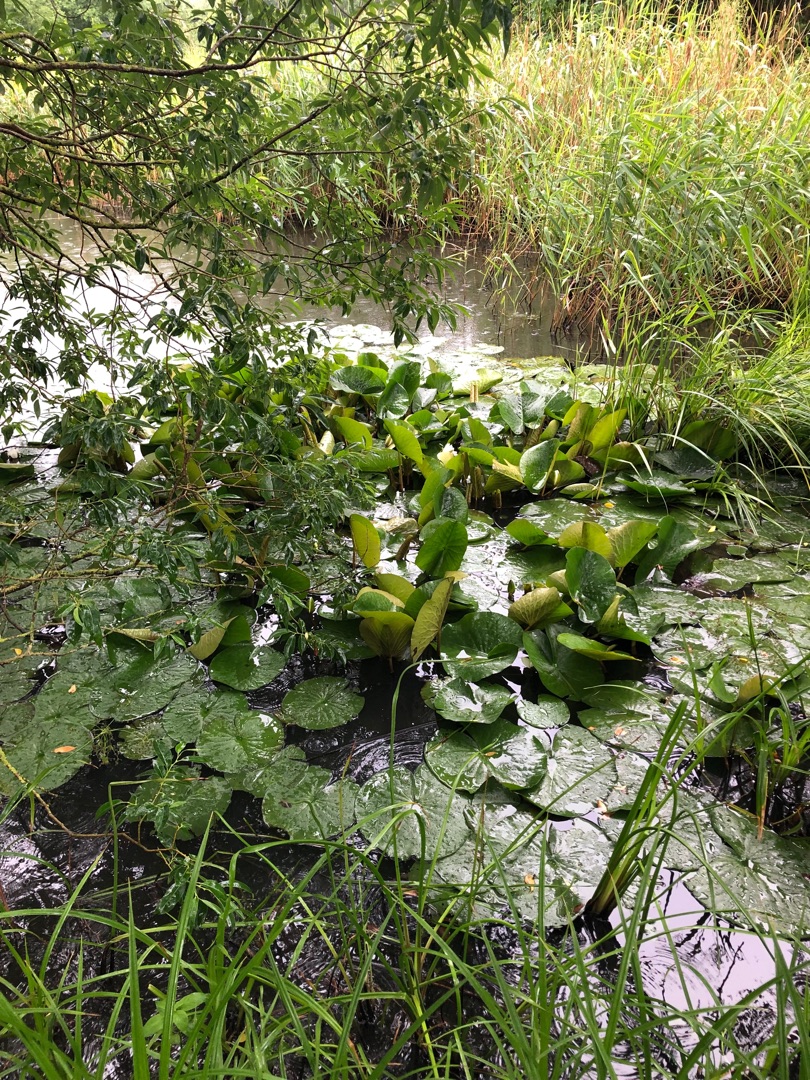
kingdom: Plantae
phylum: Tracheophyta
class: Magnoliopsida
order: Nymphaeales
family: Nymphaeaceae
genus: Nymphaea
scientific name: Nymphaea alba
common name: Hvid åkande
